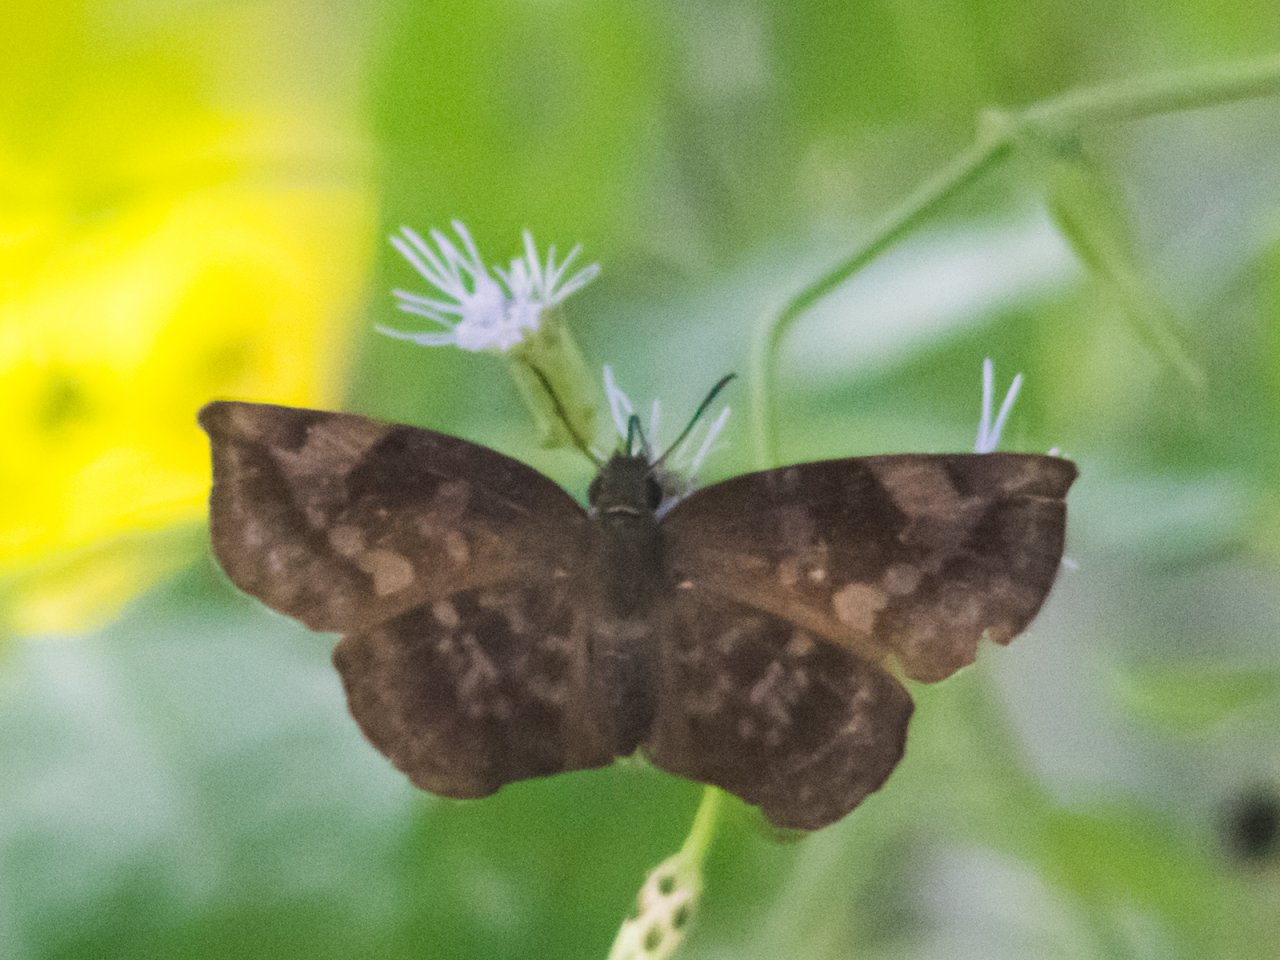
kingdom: Animalia
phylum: Arthropoda
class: Insecta
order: Lepidoptera
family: Hesperiidae
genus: Achlyodes
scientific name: Achlyodes thraso
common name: Sickle-winged Skipper
